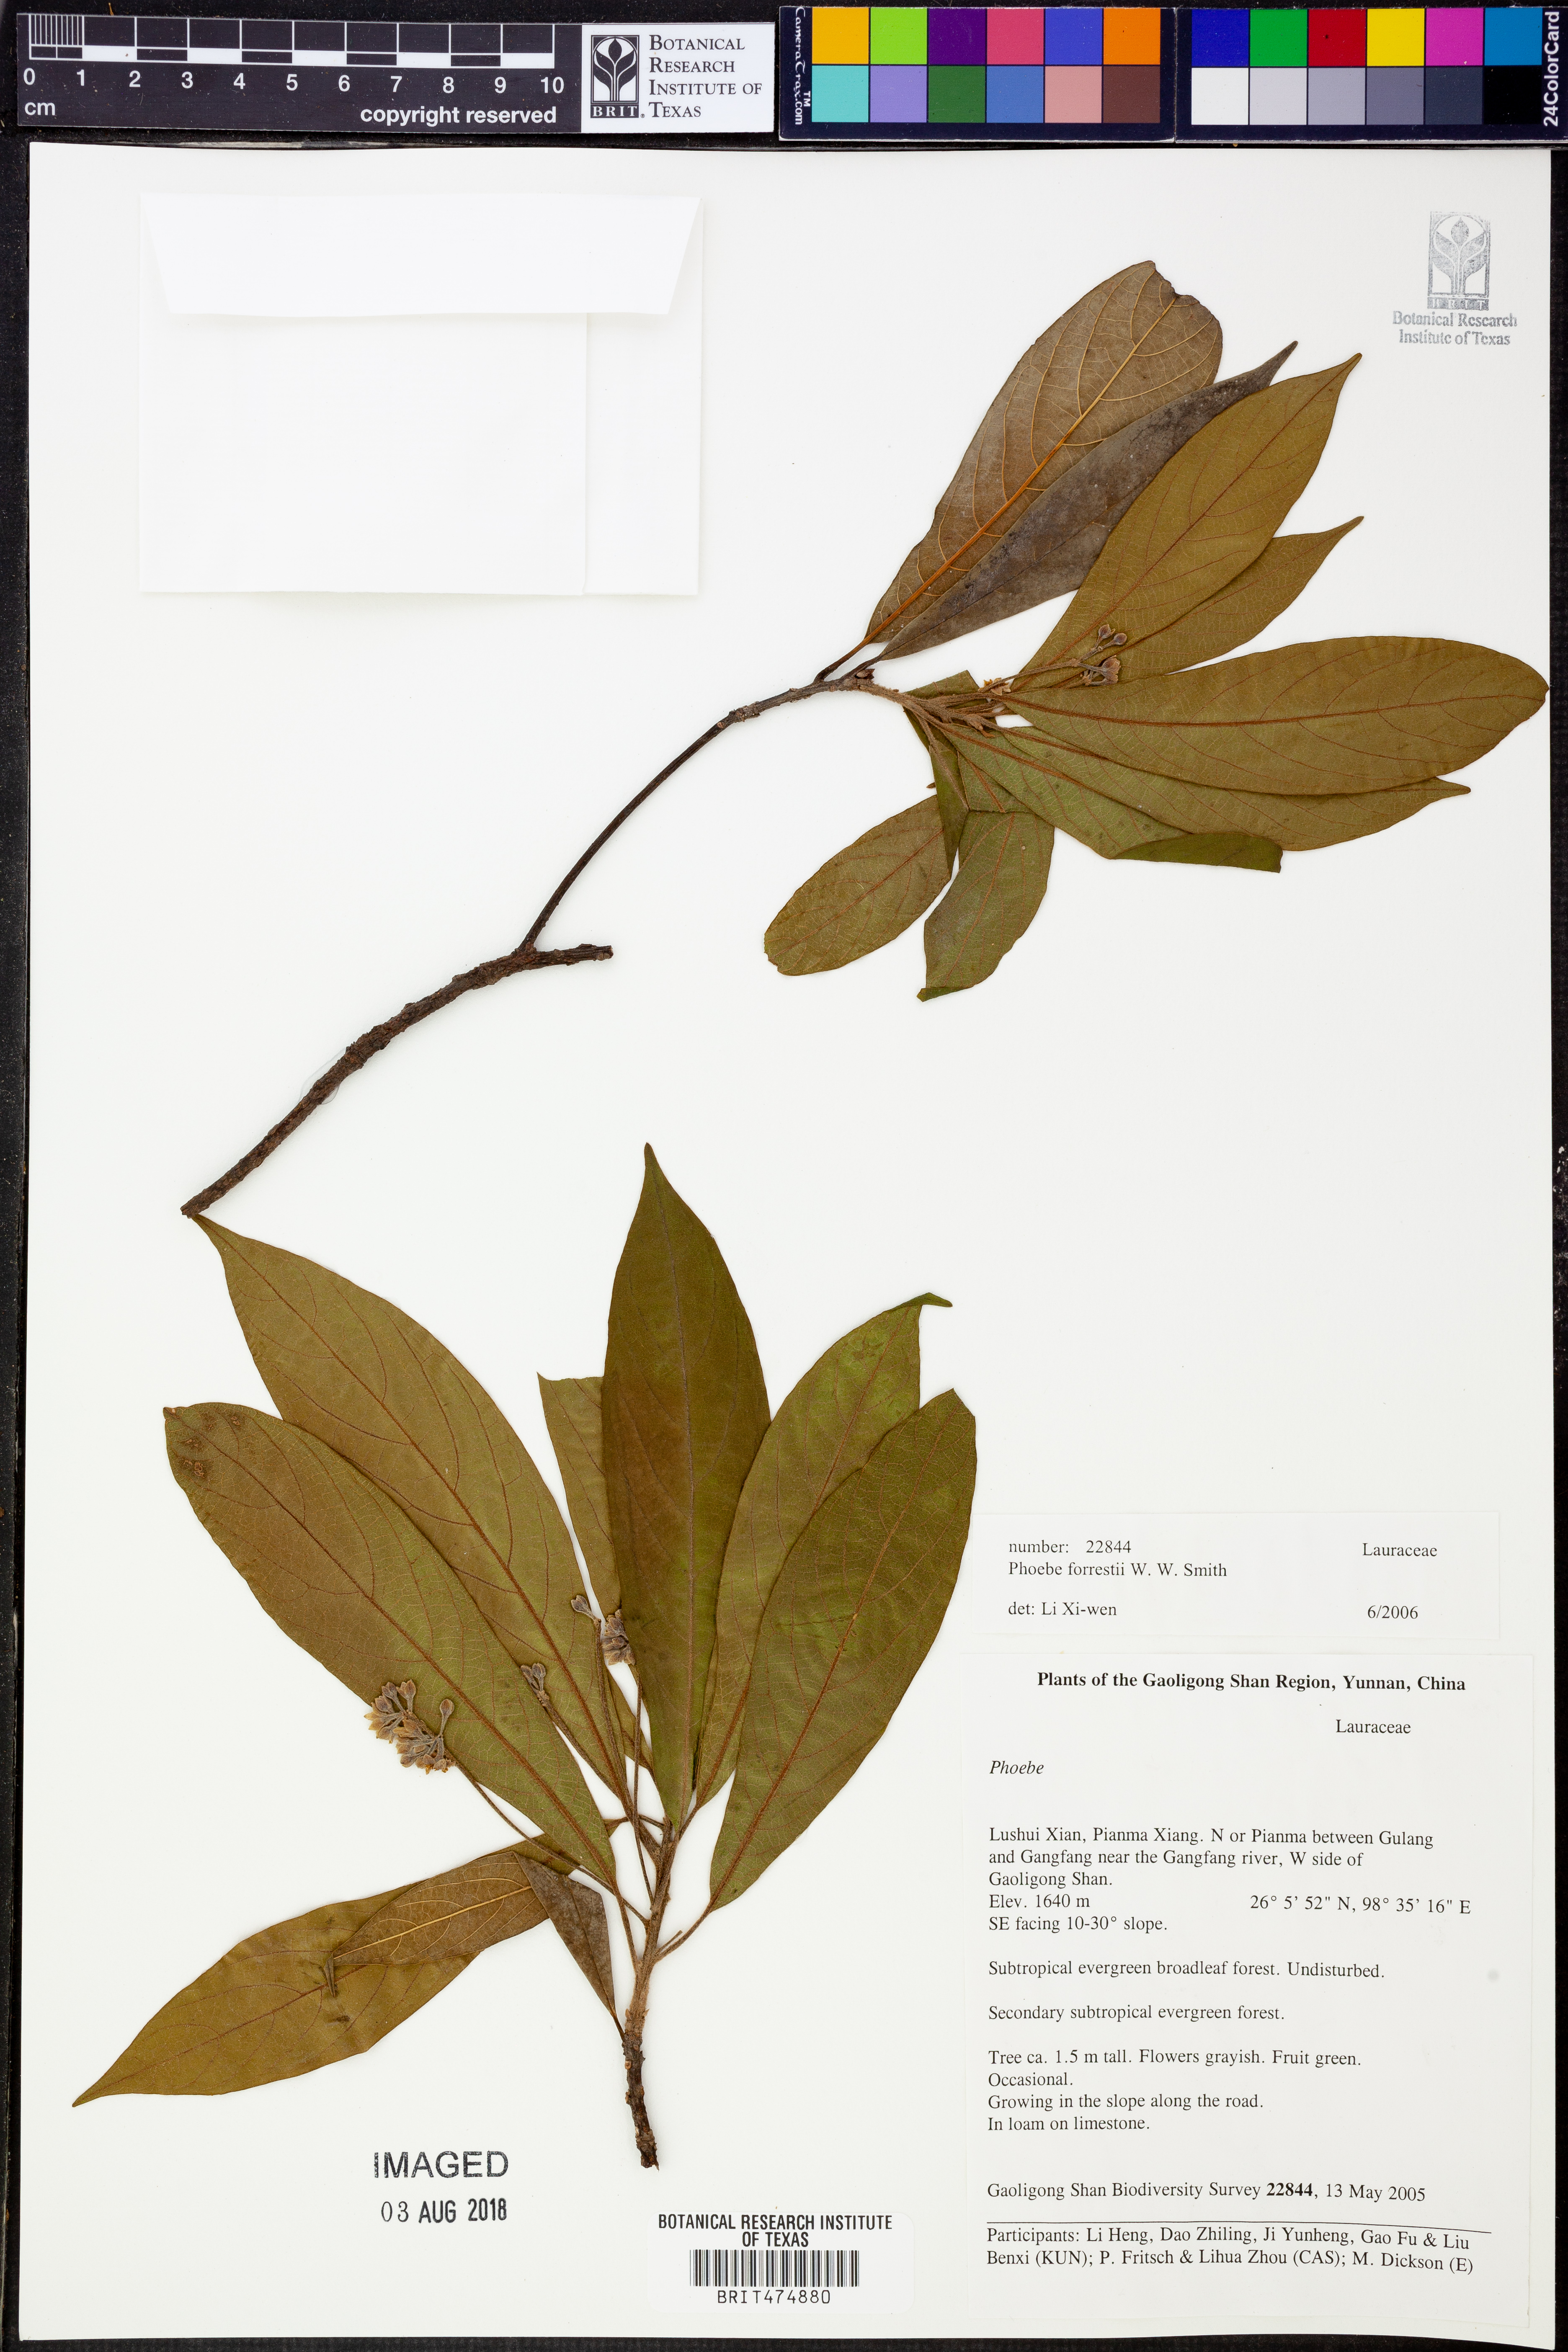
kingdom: Plantae
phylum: Tracheophyta
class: Magnoliopsida
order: Laurales
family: Lauraceae
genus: Machilus
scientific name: Machilus forrestii
